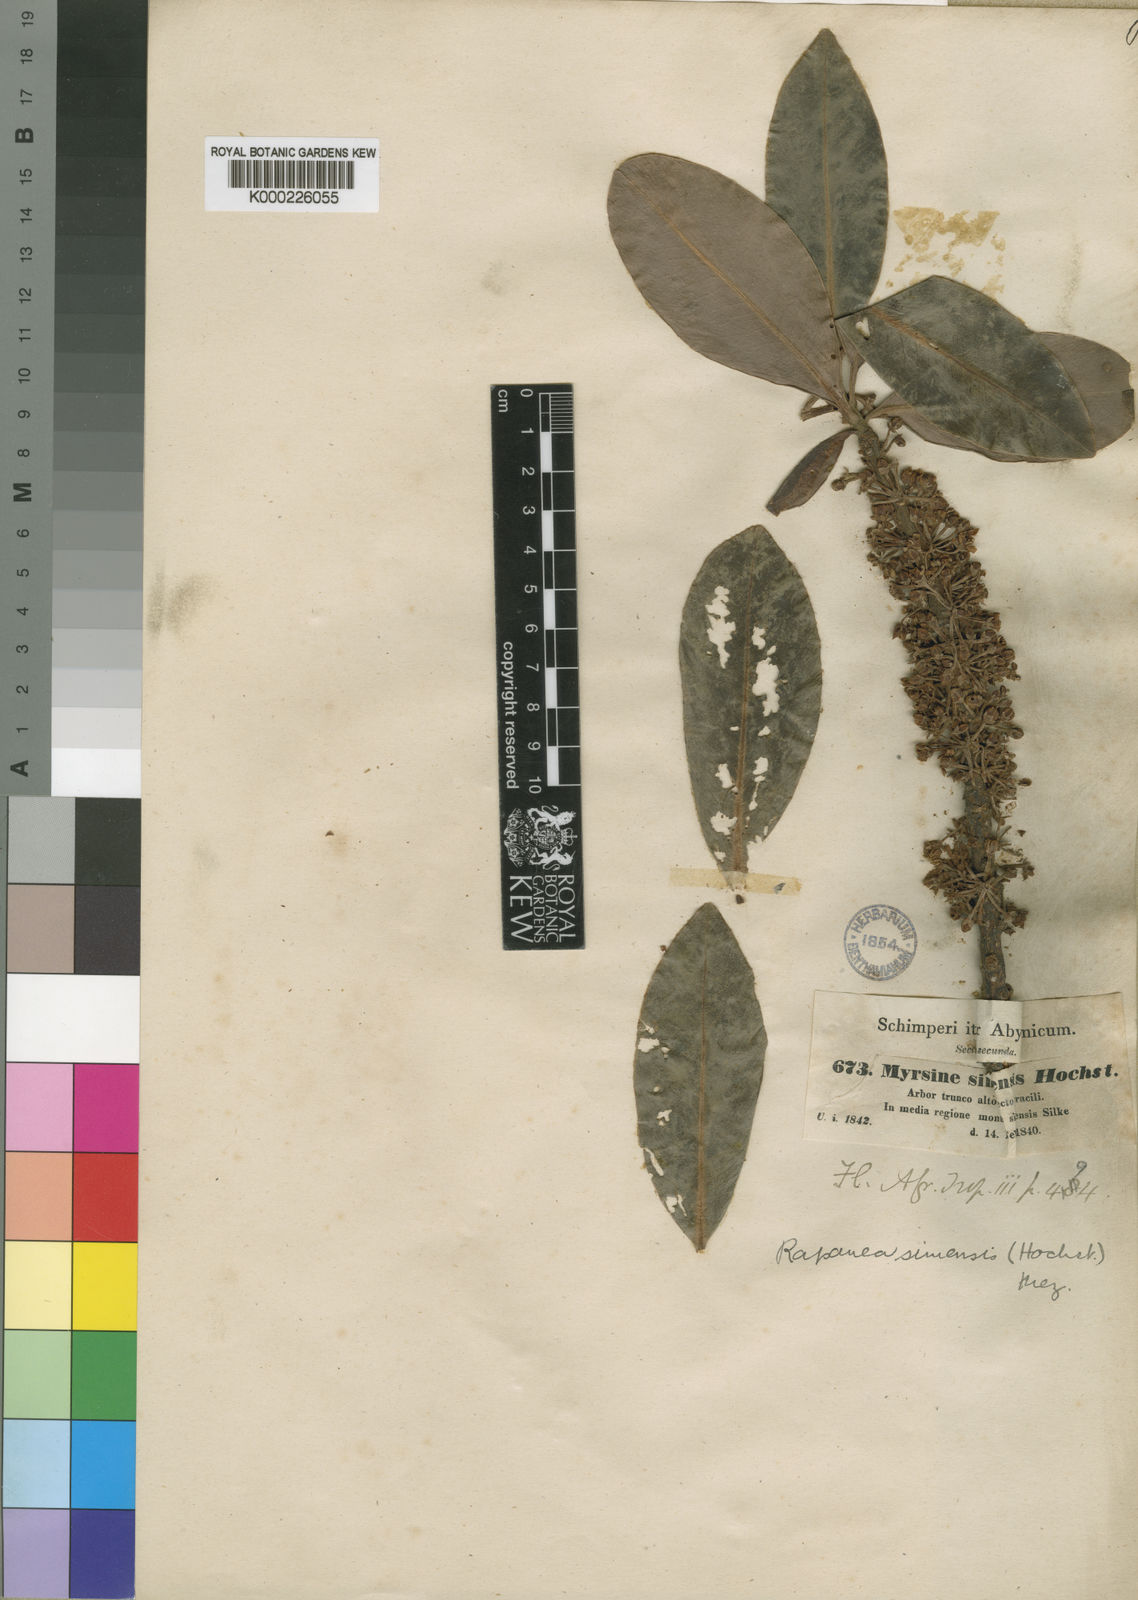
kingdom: Plantae
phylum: Tracheophyta
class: Magnoliopsida
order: Ericales
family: Primulaceae
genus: Myrsine
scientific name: Myrsine melanophloeos
